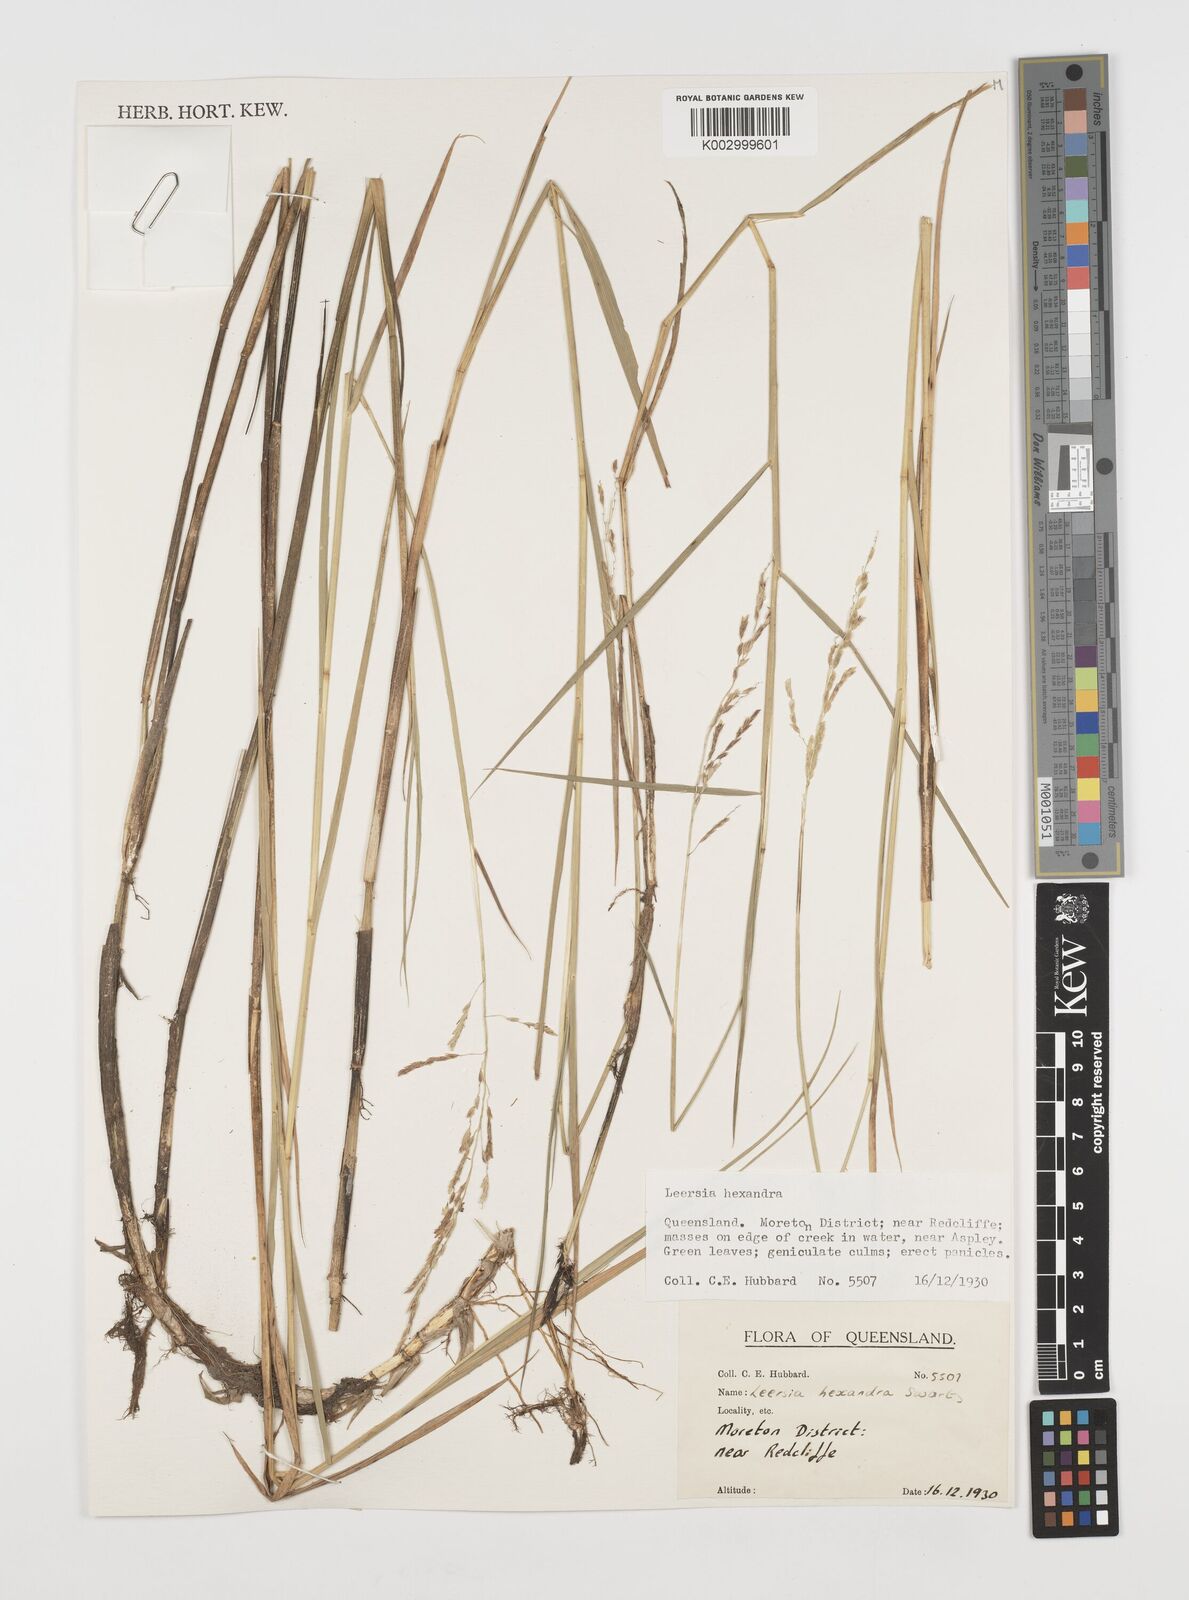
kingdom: Plantae
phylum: Tracheophyta
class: Liliopsida
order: Poales
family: Poaceae
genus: Leersia
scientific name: Leersia hexandra
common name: Southern cut grass
